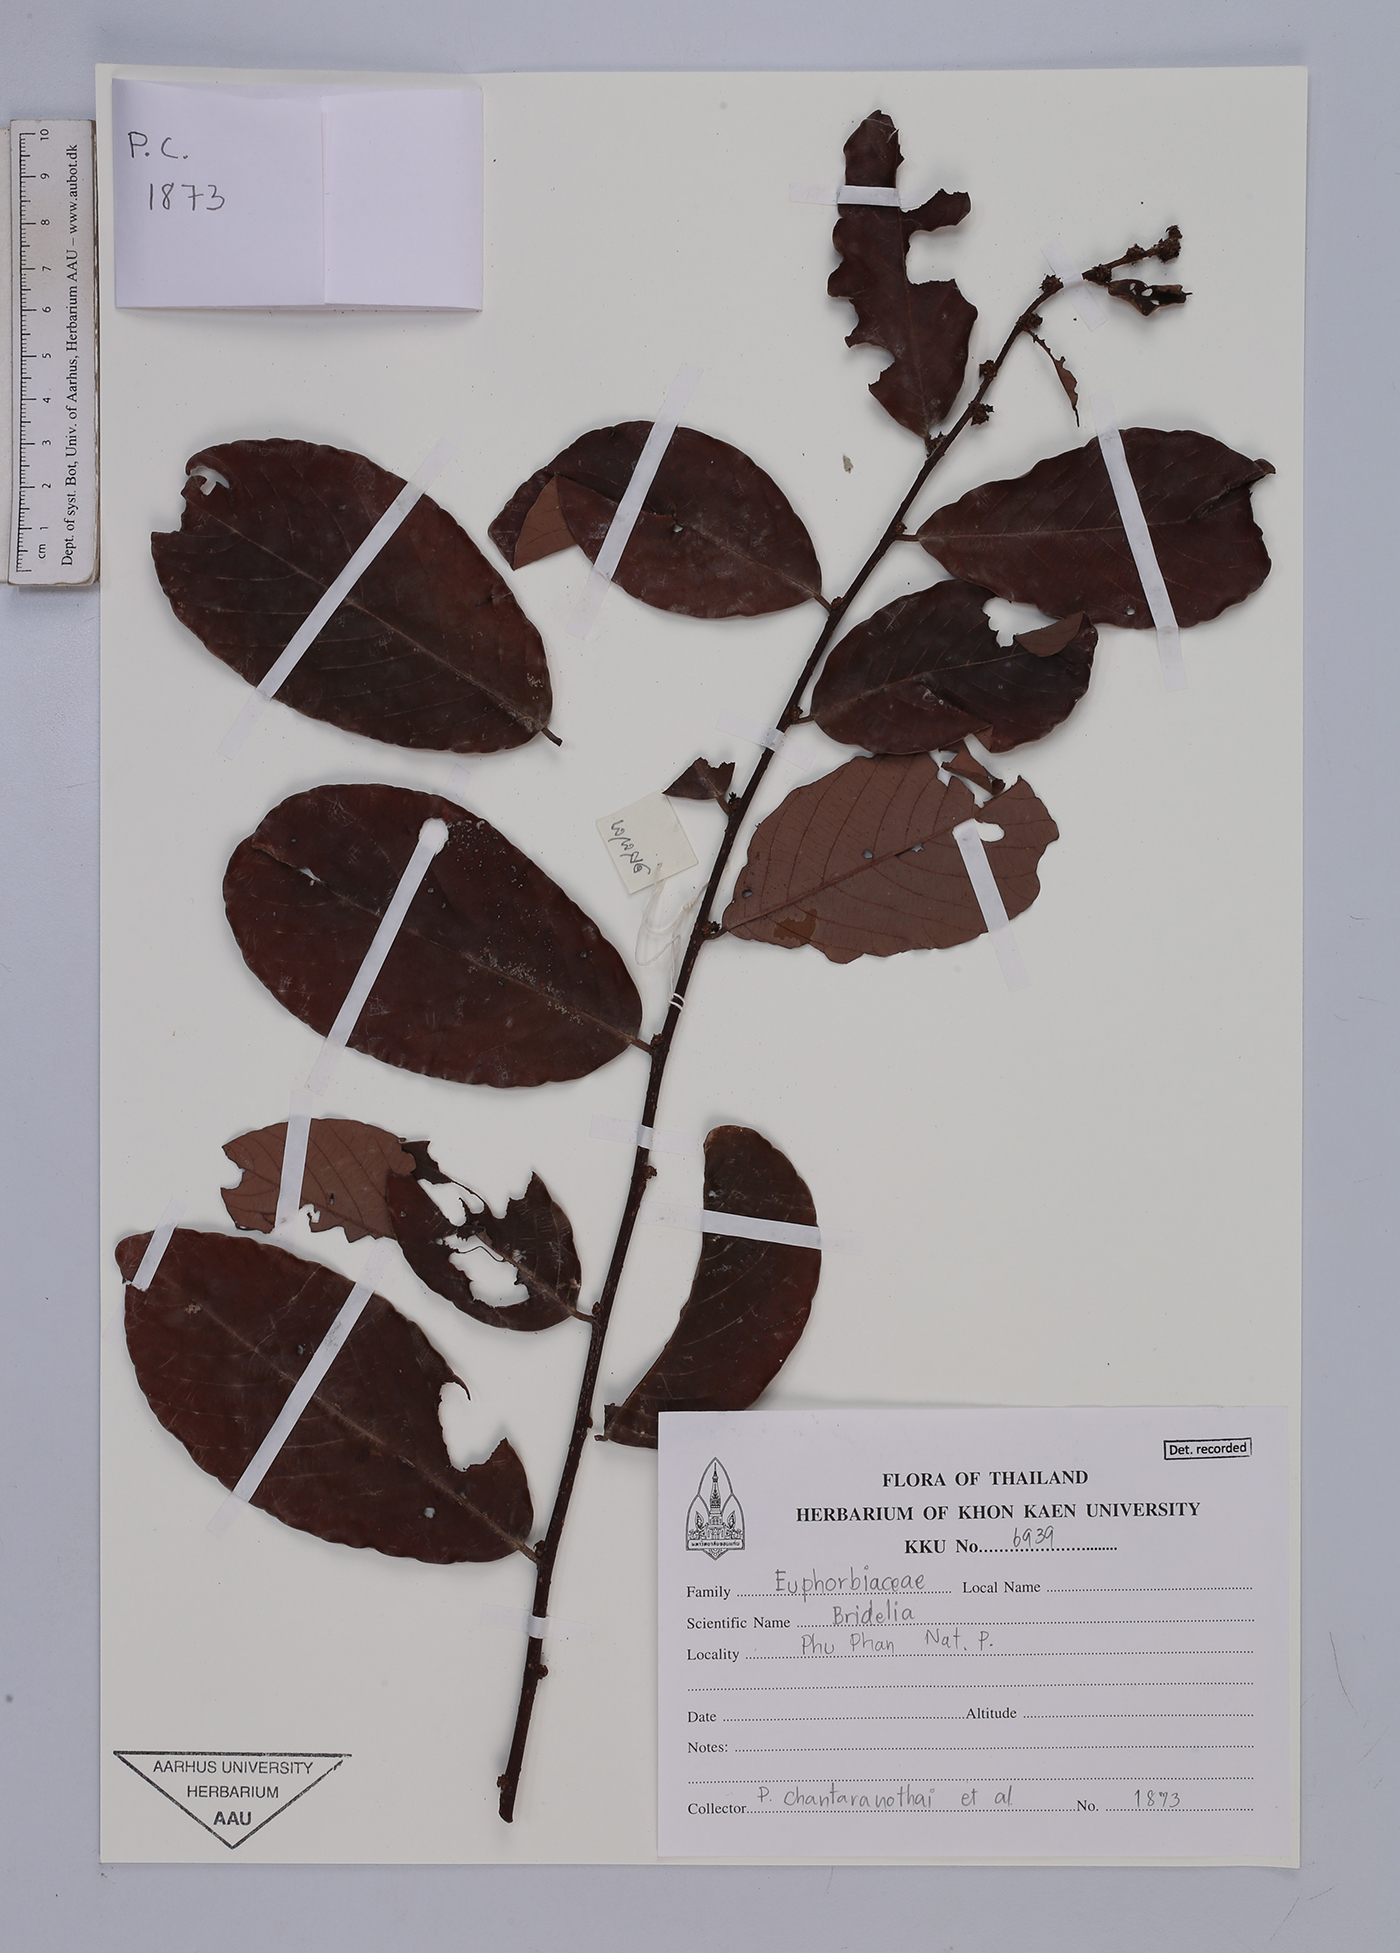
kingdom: Plantae
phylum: Tracheophyta
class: Magnoliopsida
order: Malpighiales
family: Euphorbiaceae
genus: Bridelia
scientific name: Bridelia
